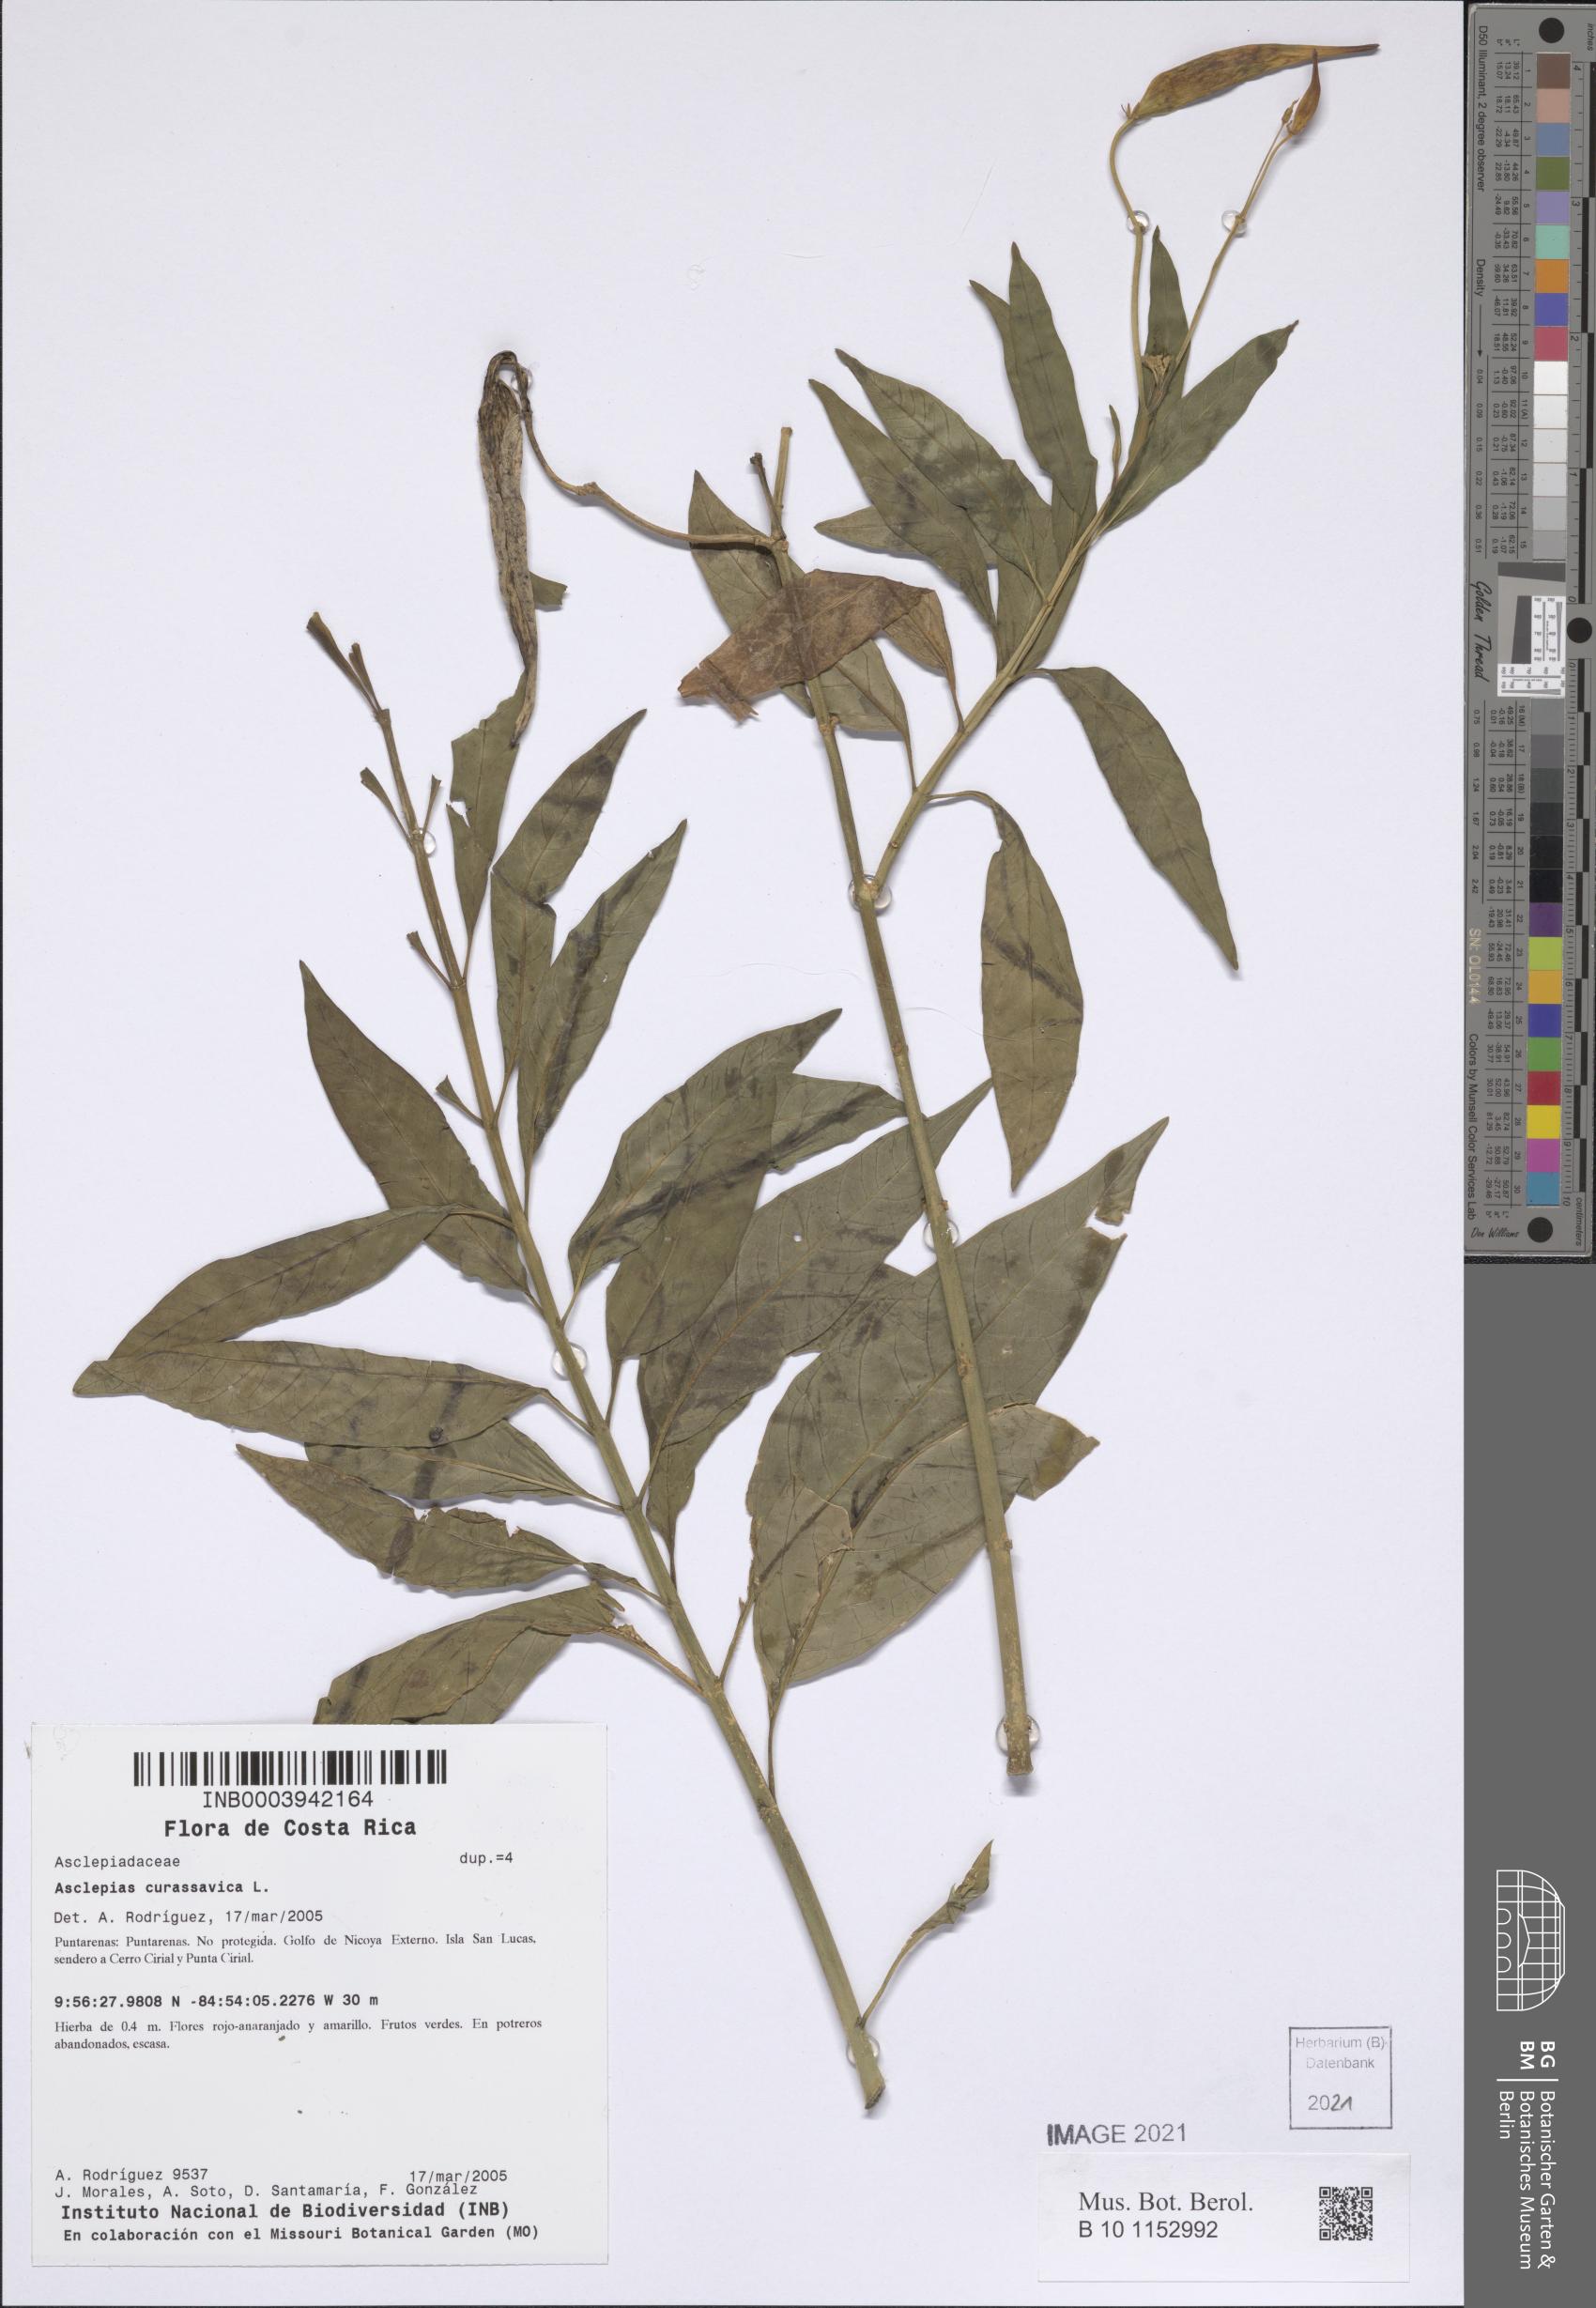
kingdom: Plantae
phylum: Tracheophyta
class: Magnoliopsida
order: Gentianales
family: Apocynaceae
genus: Asclepias
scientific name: Asclepias curassavica
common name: Bloodflower
